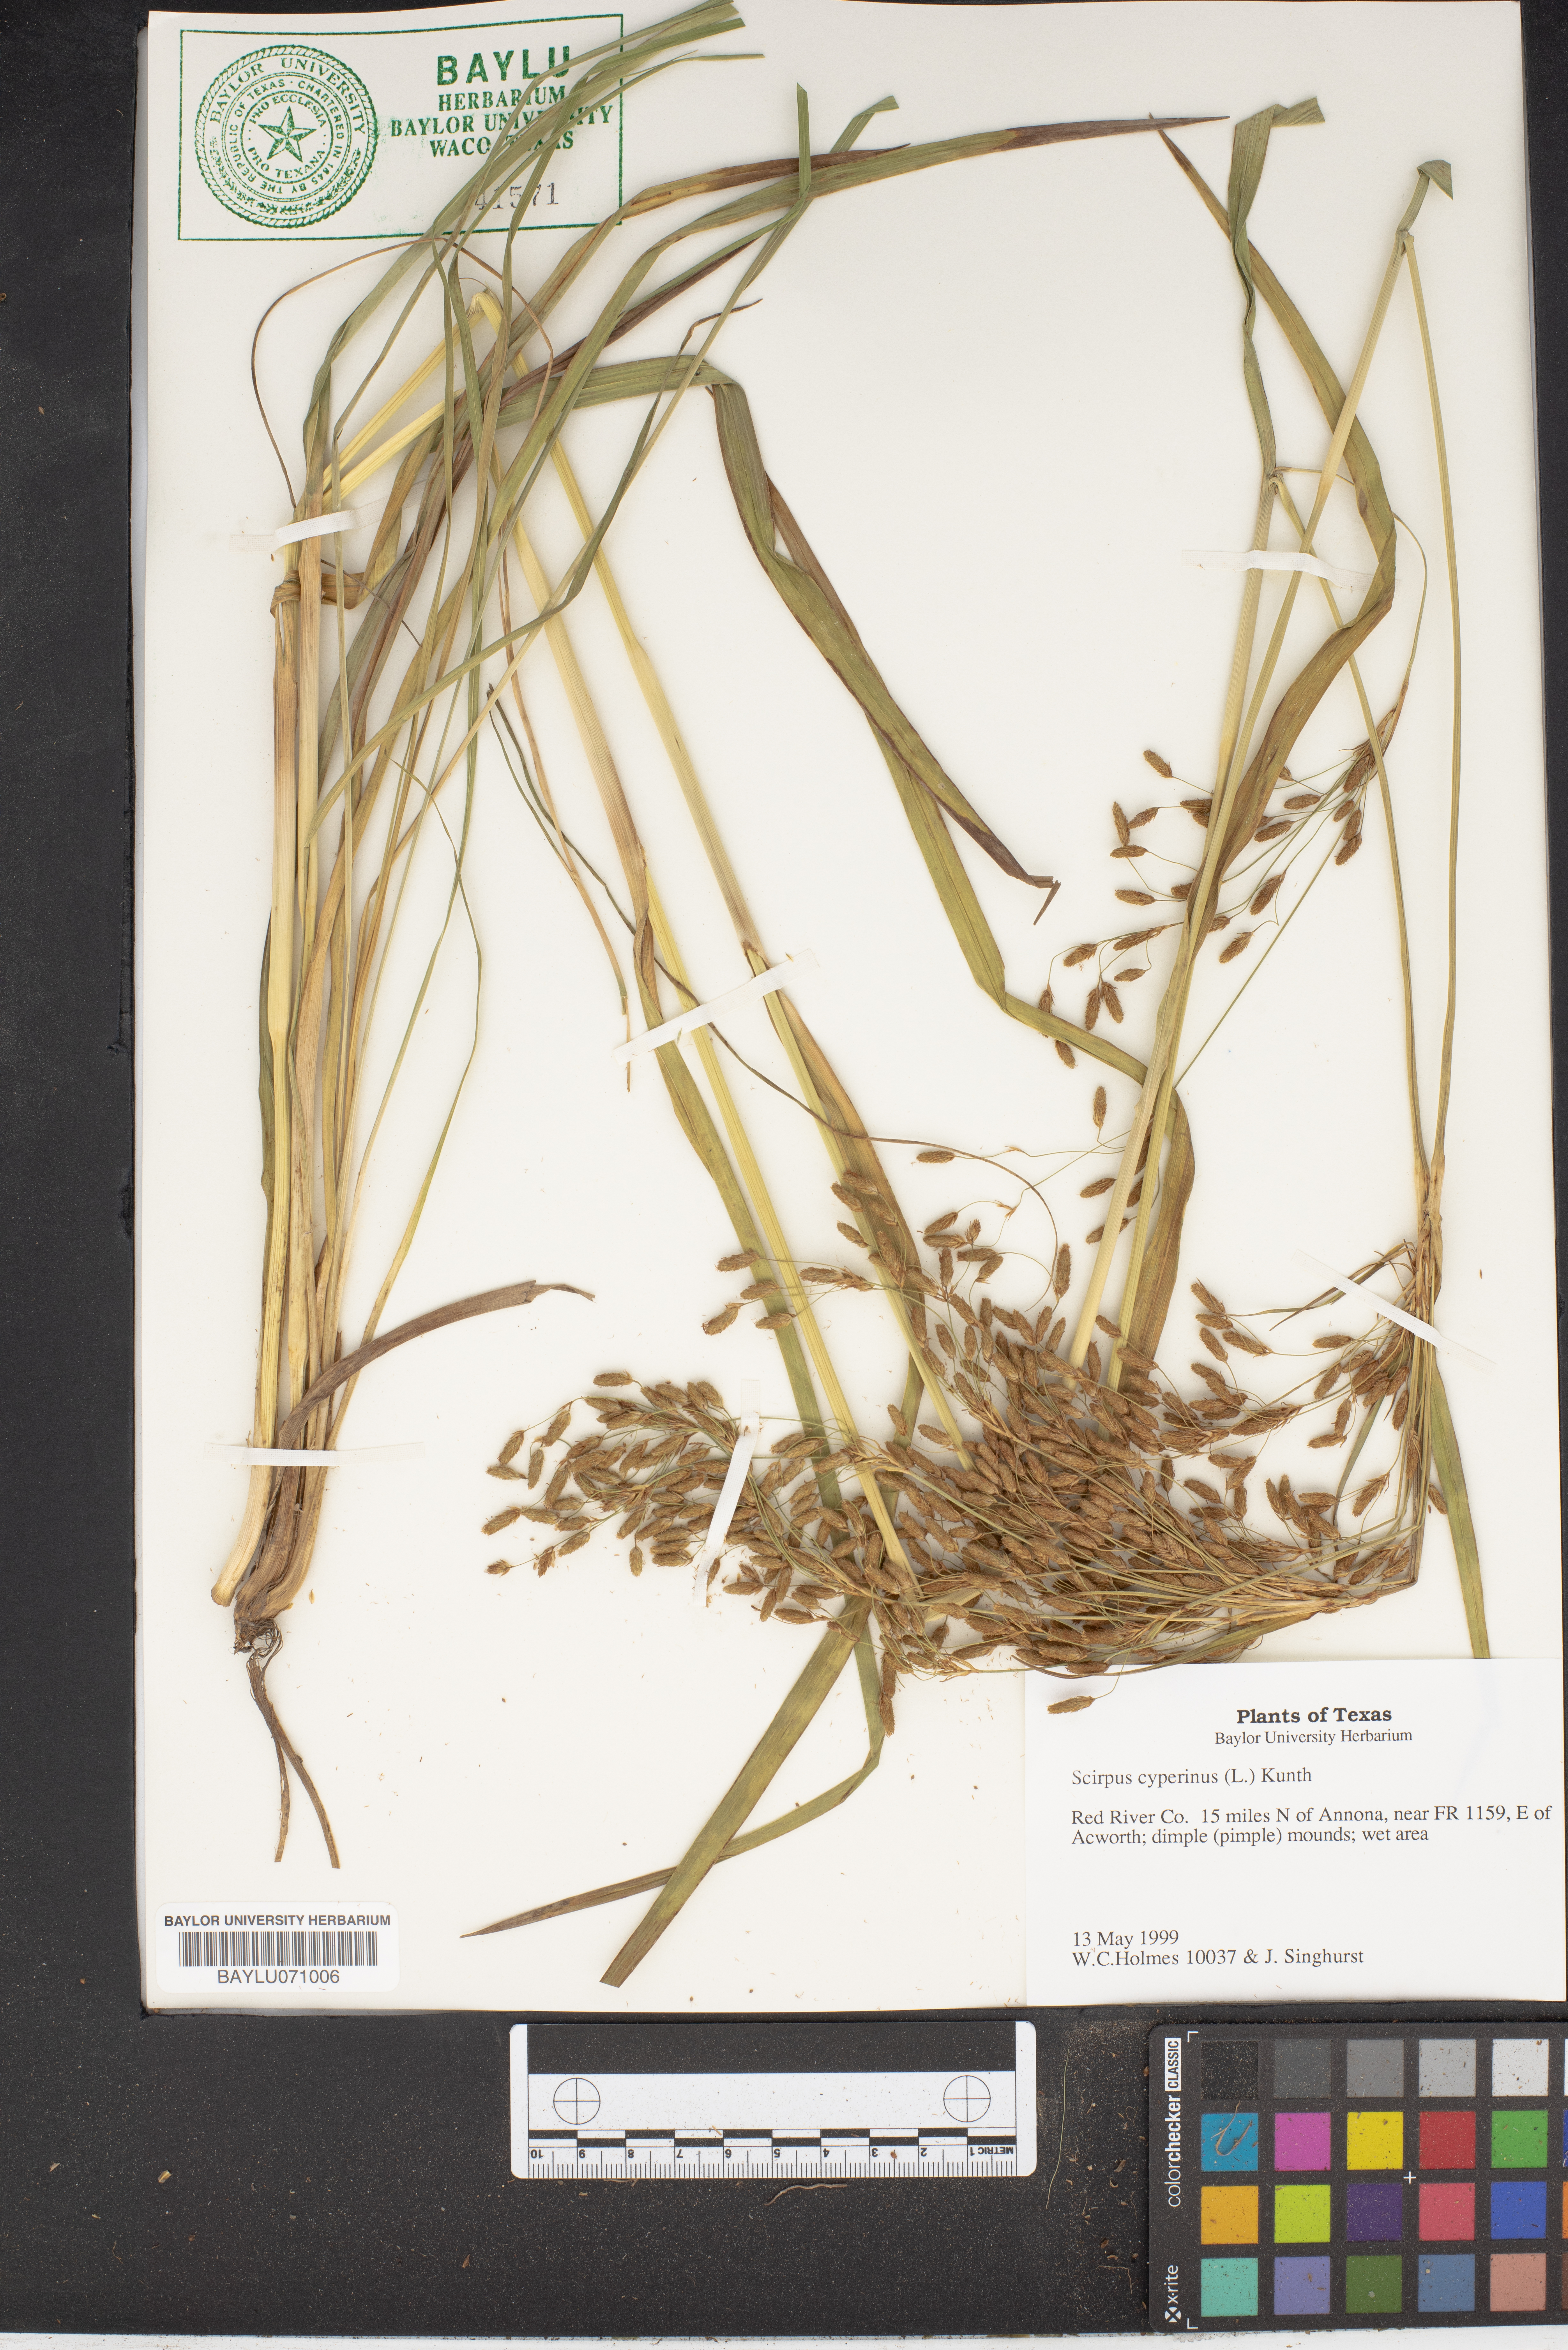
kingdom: Plantae
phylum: Tracheophyta
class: Liliopsida
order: Poales
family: Cyperaceae
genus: Scirpus
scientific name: Scirpus cyperinus
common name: Black-sheathed bulrush
